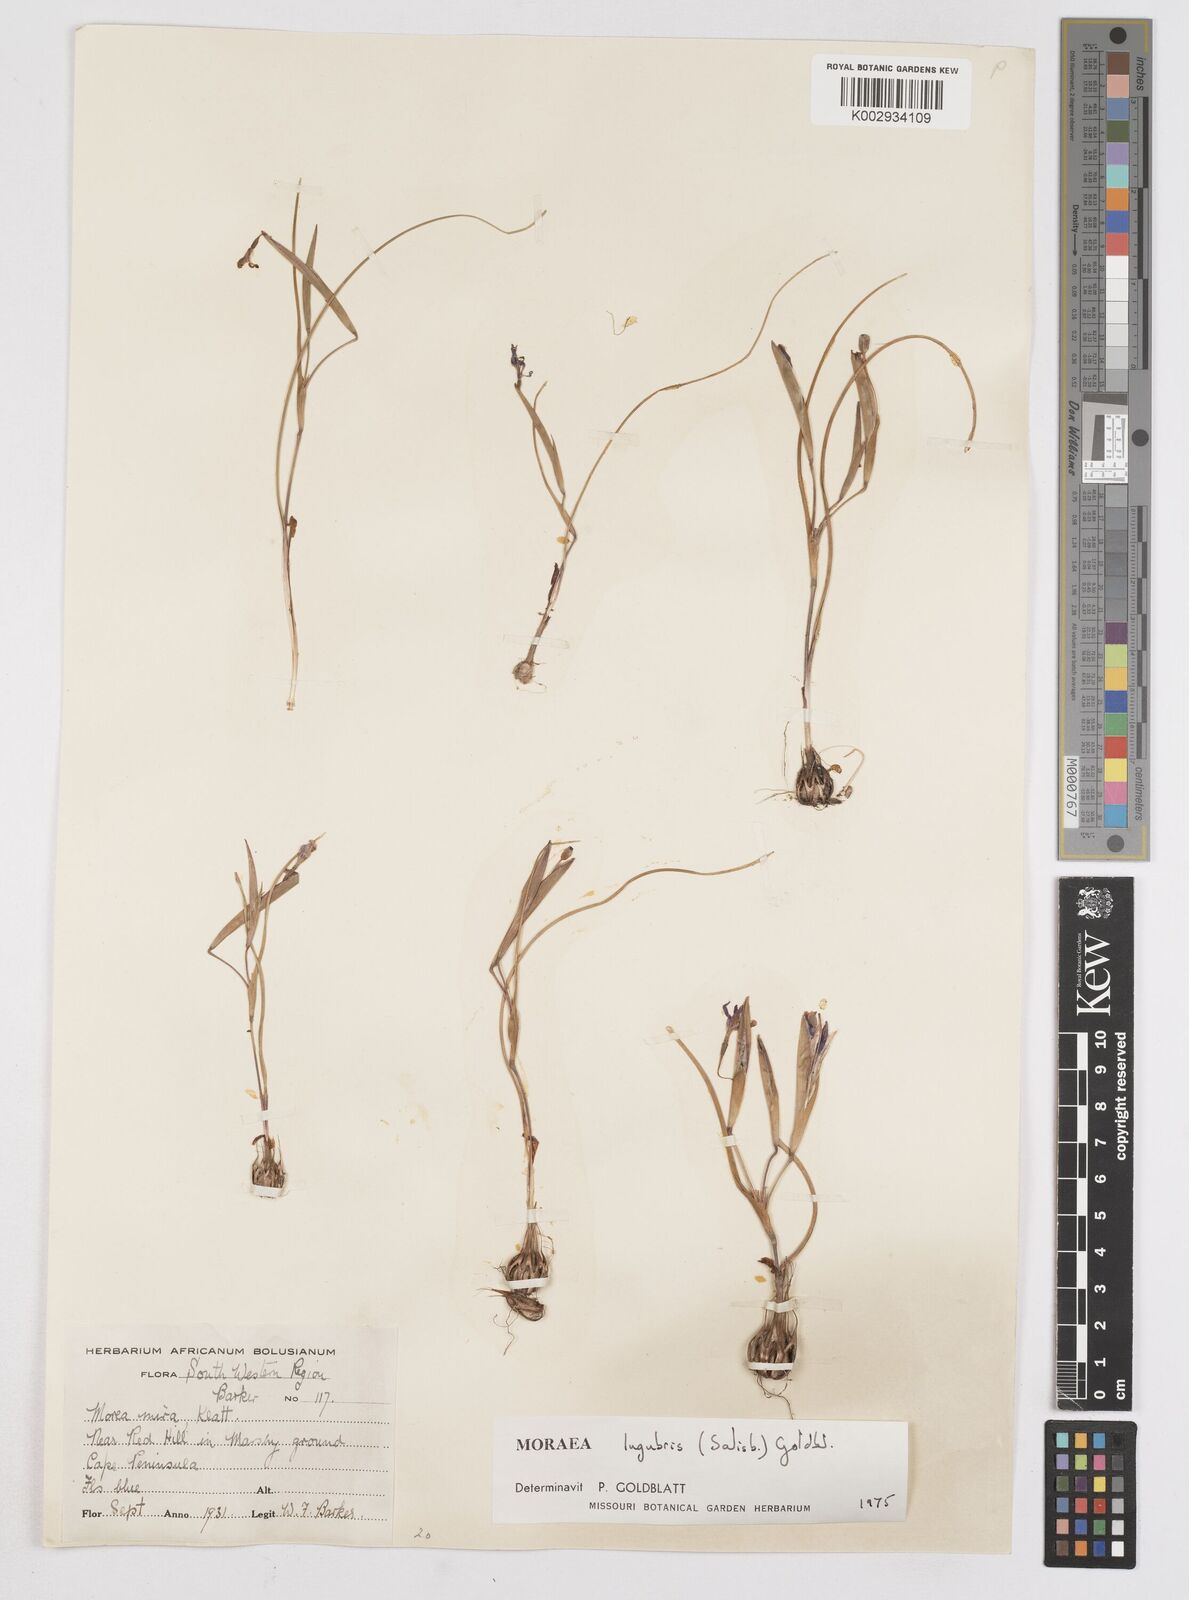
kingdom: Plantae
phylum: Tracheophyta
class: Liliopsida
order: Asparagales
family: Iridaceae
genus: Moraea
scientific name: Moraea lugubris
